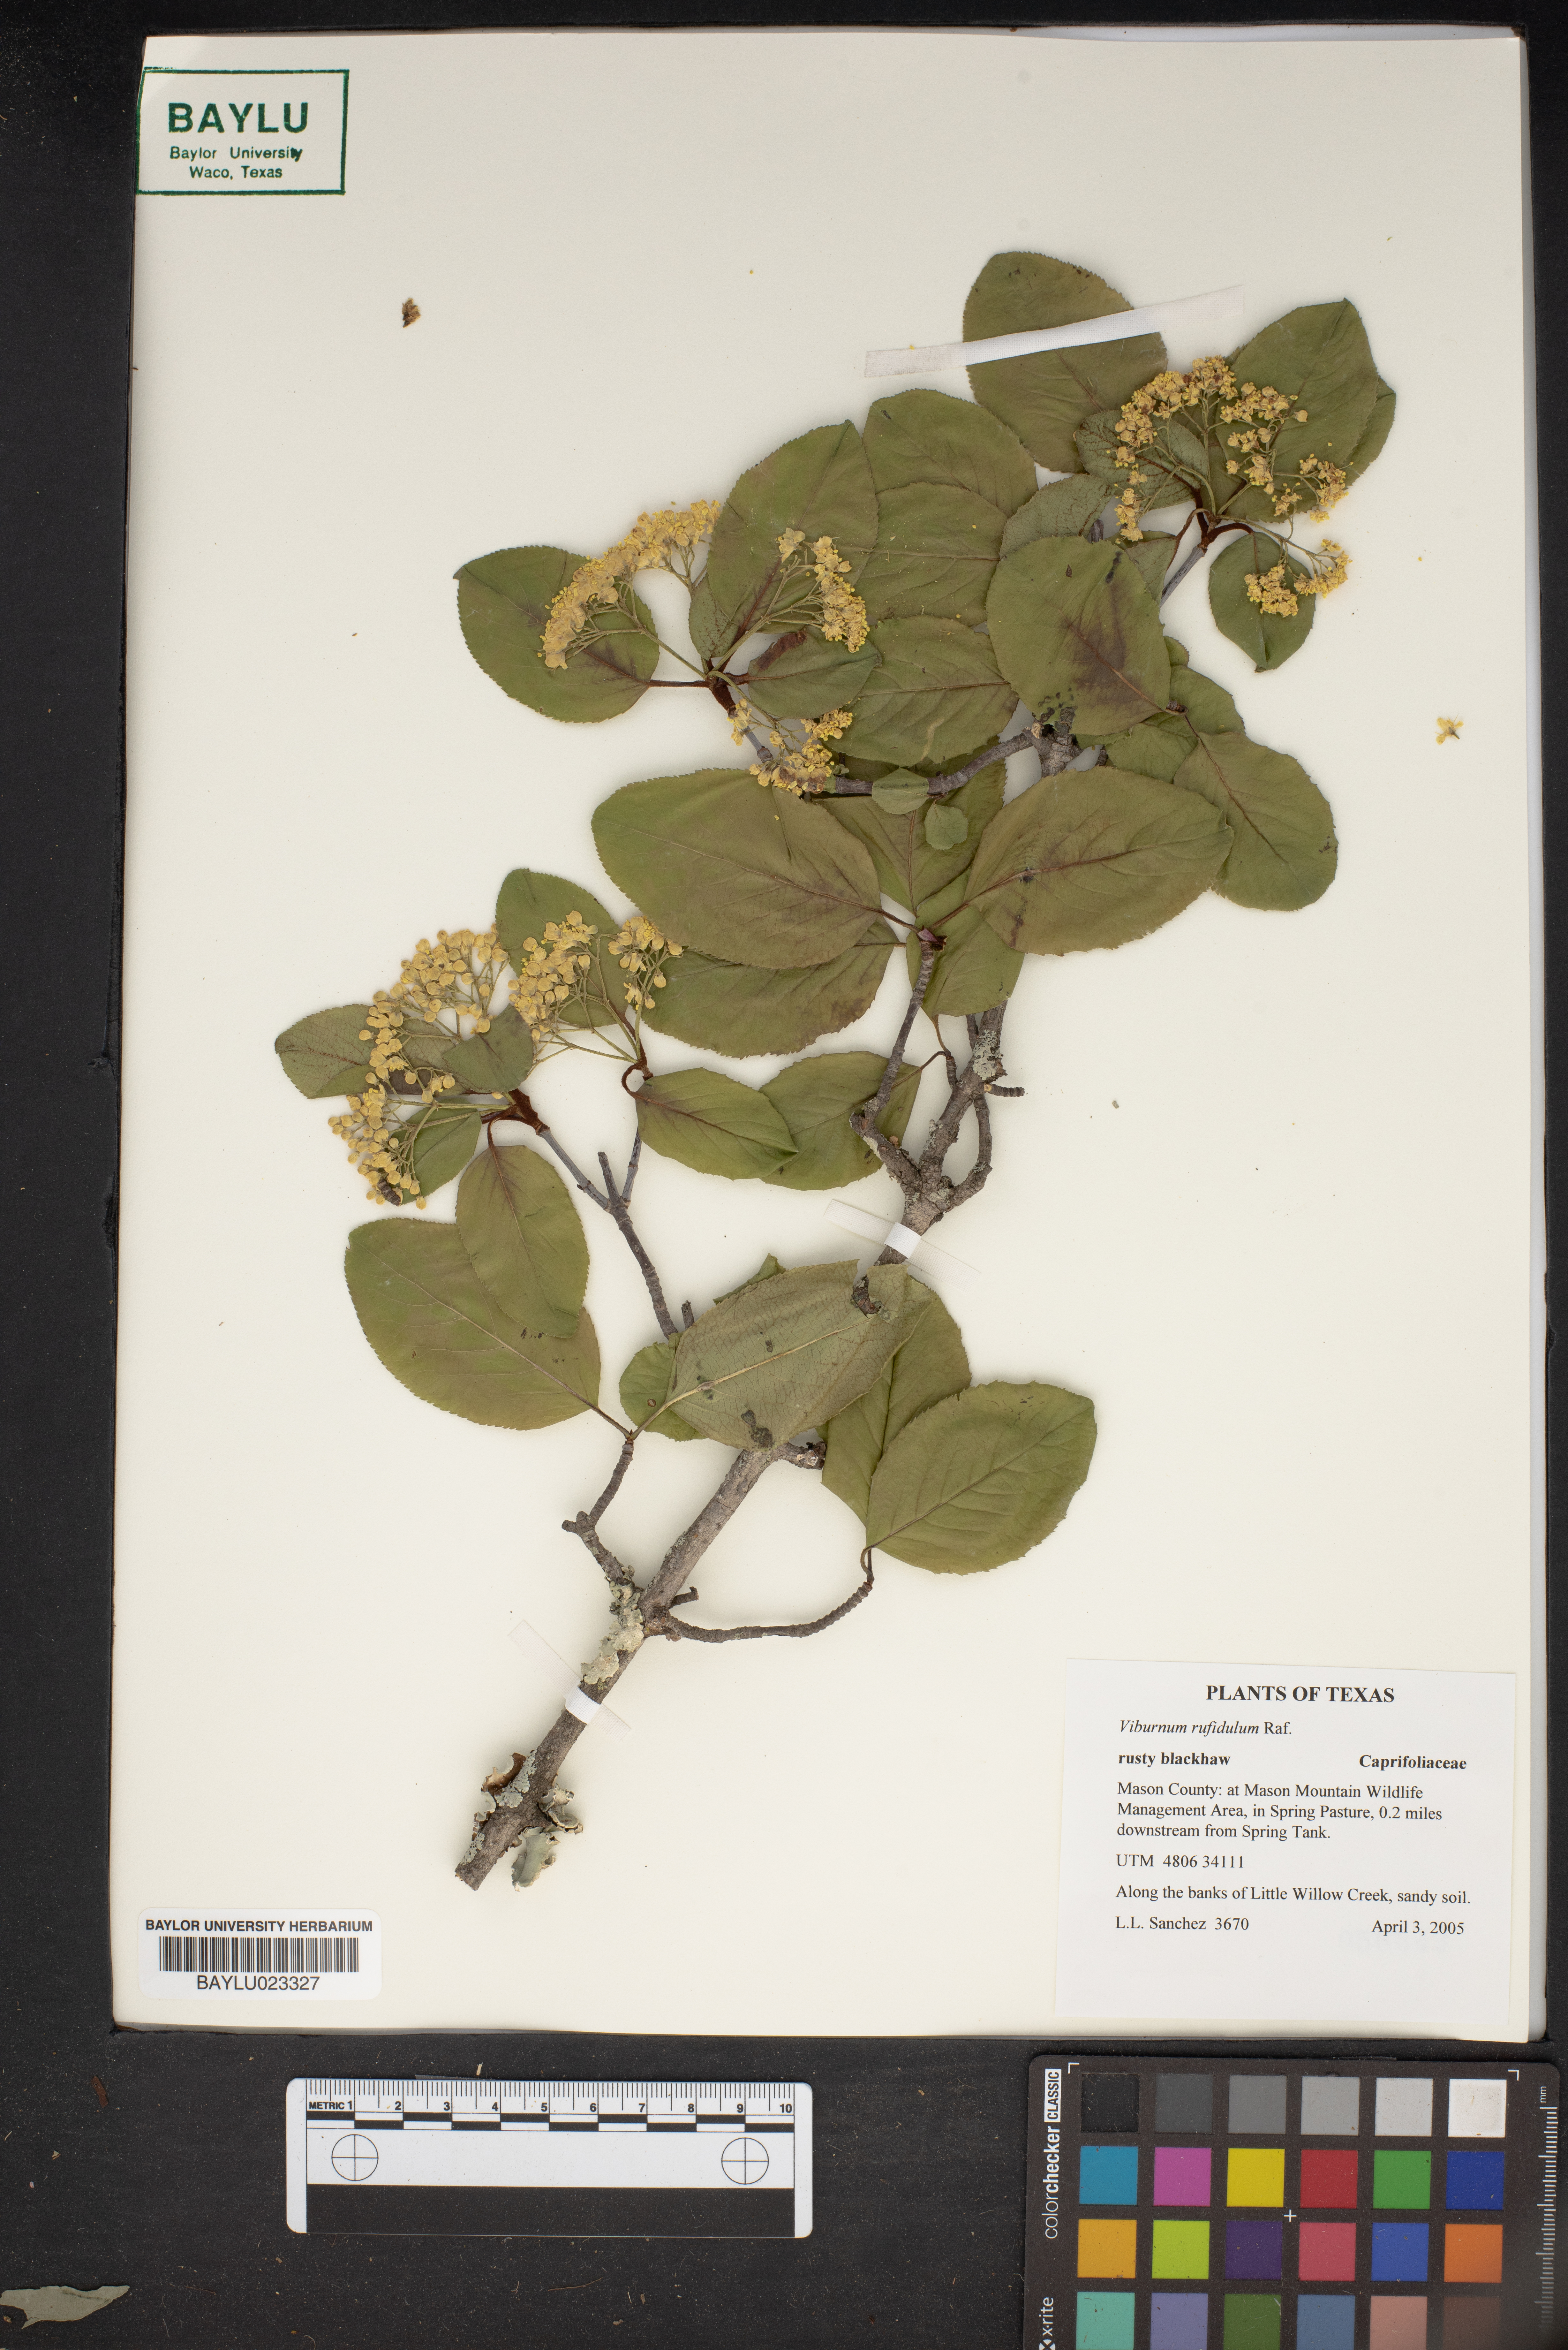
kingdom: Plantae
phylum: Tracheophyta
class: Magnoliopsida
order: Dipsacales
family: Viburnaceae
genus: Viburnum
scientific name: Viburnum rufidulum
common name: Blue haw
